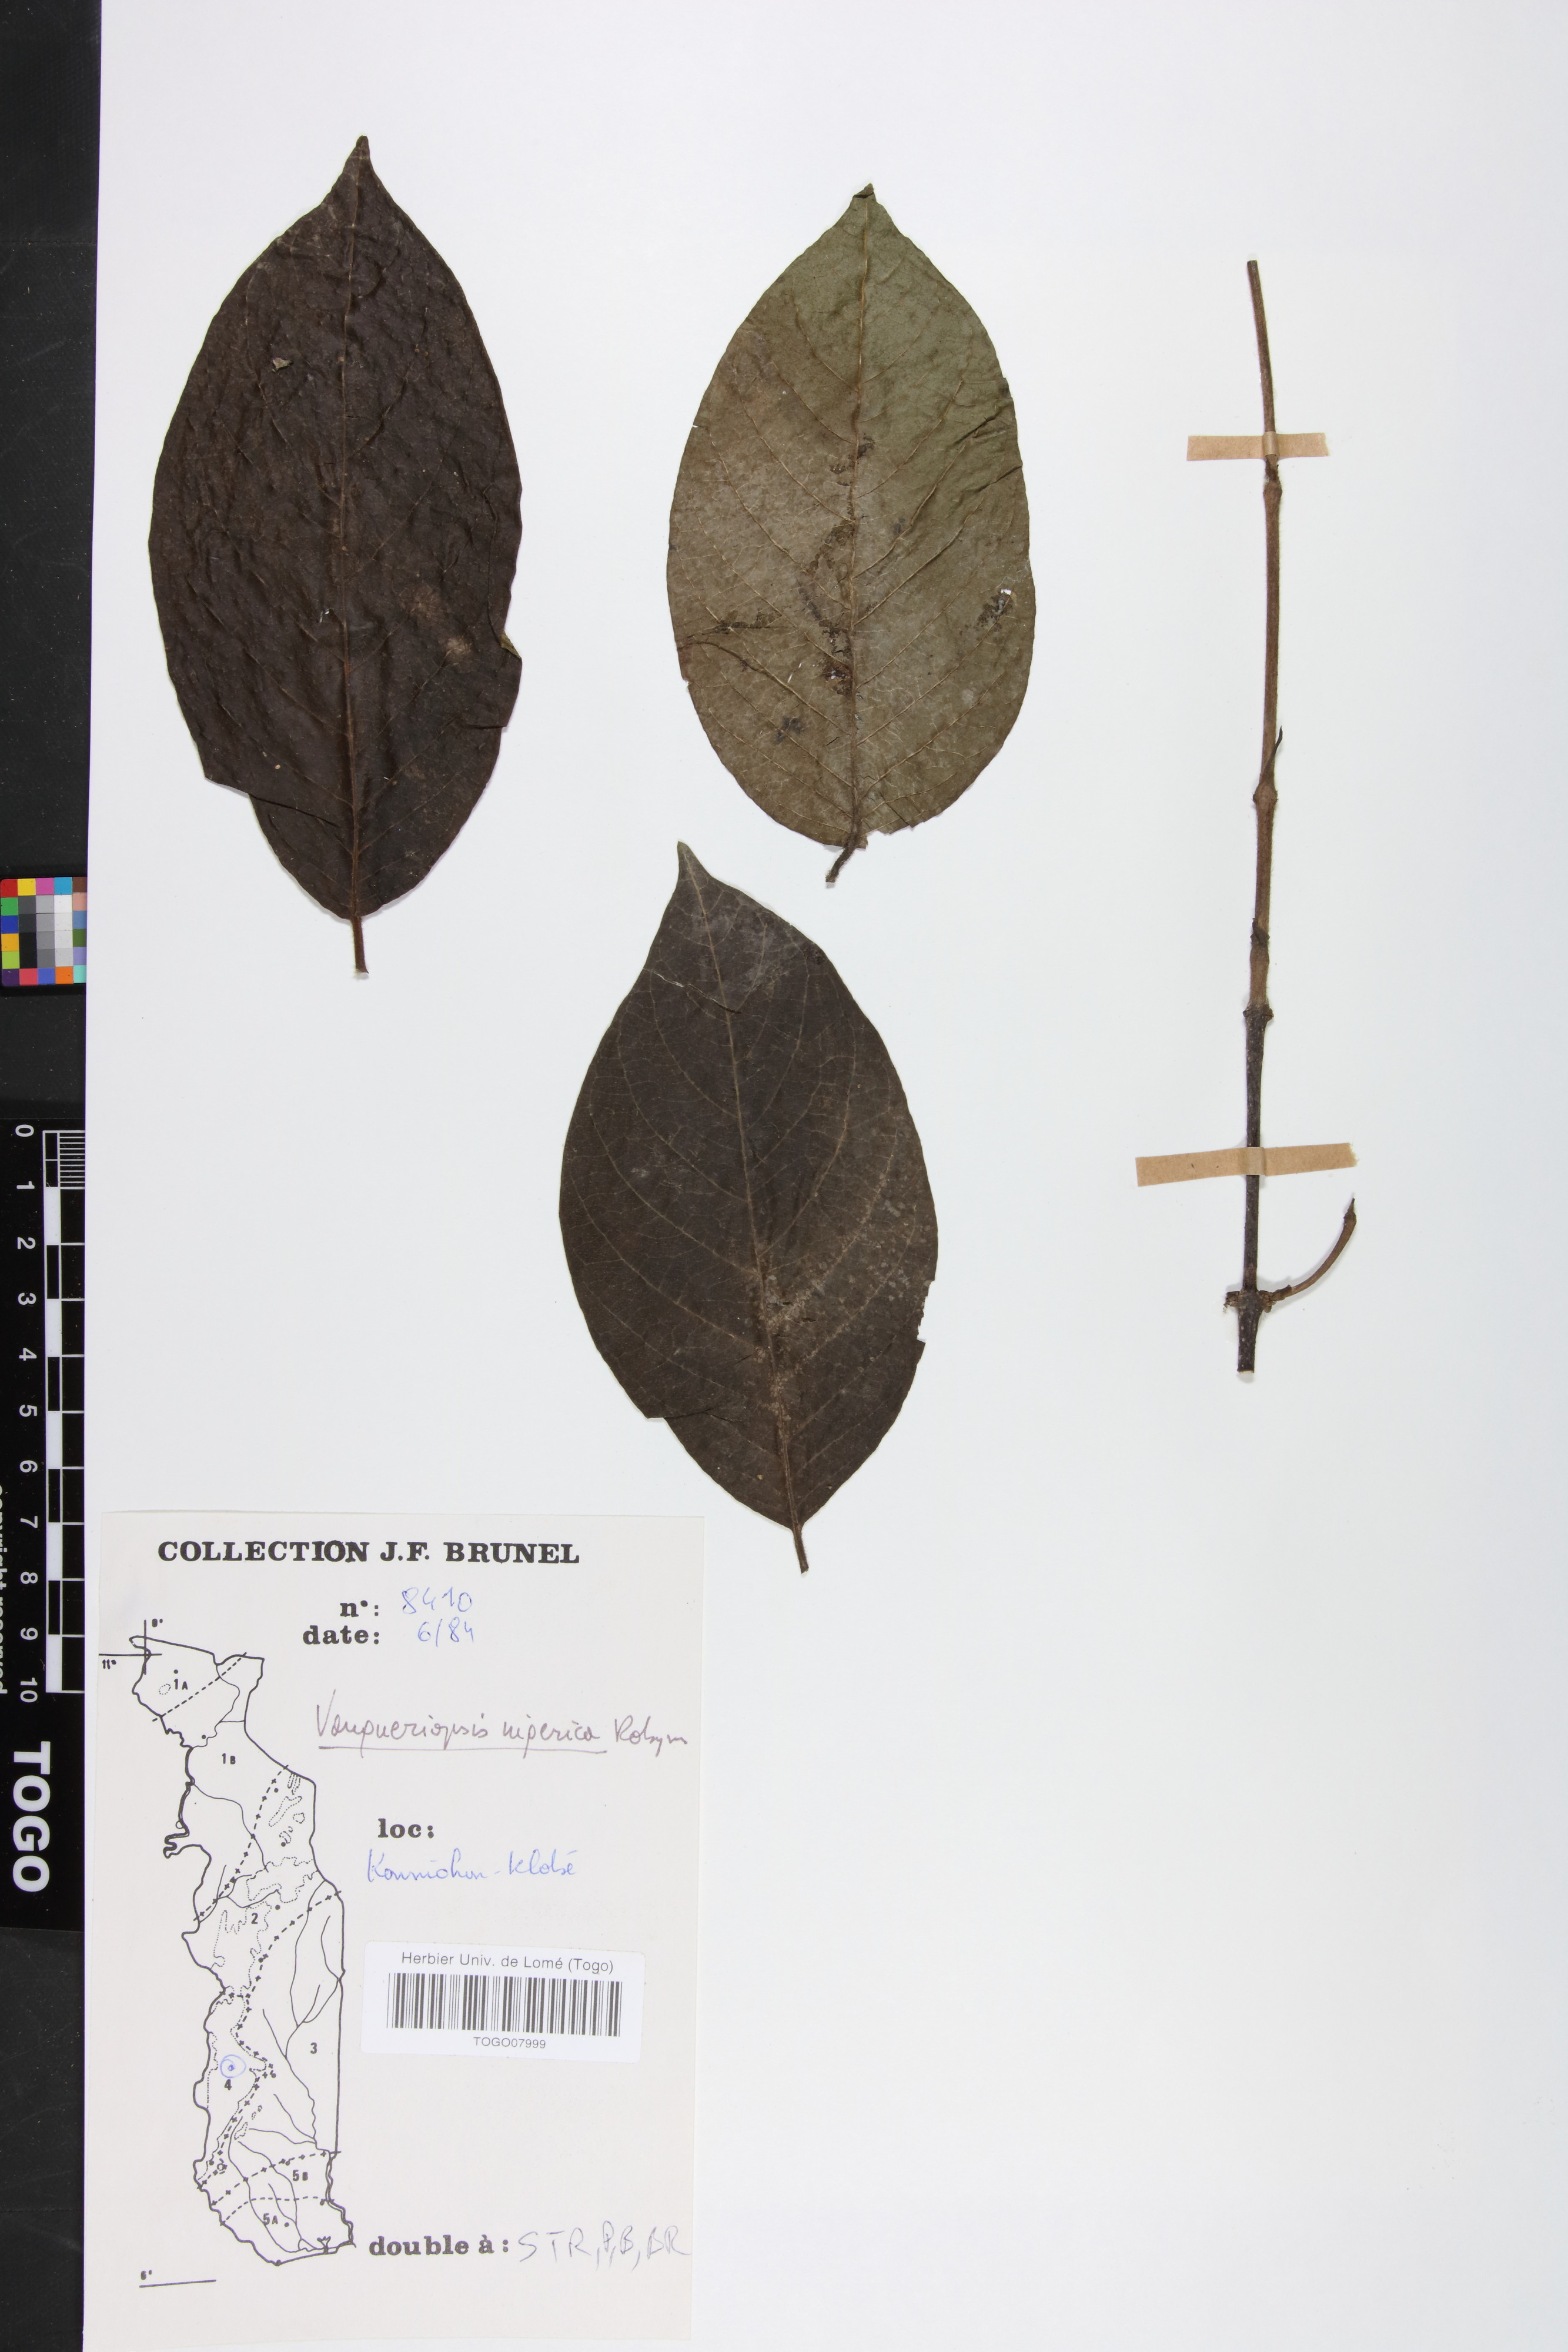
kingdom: Plantae
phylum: Tracheophyta
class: Magnoliopsida
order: Gentianales
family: Rubiaceae
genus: Vangueriella
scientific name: Vangueriella nigerica
